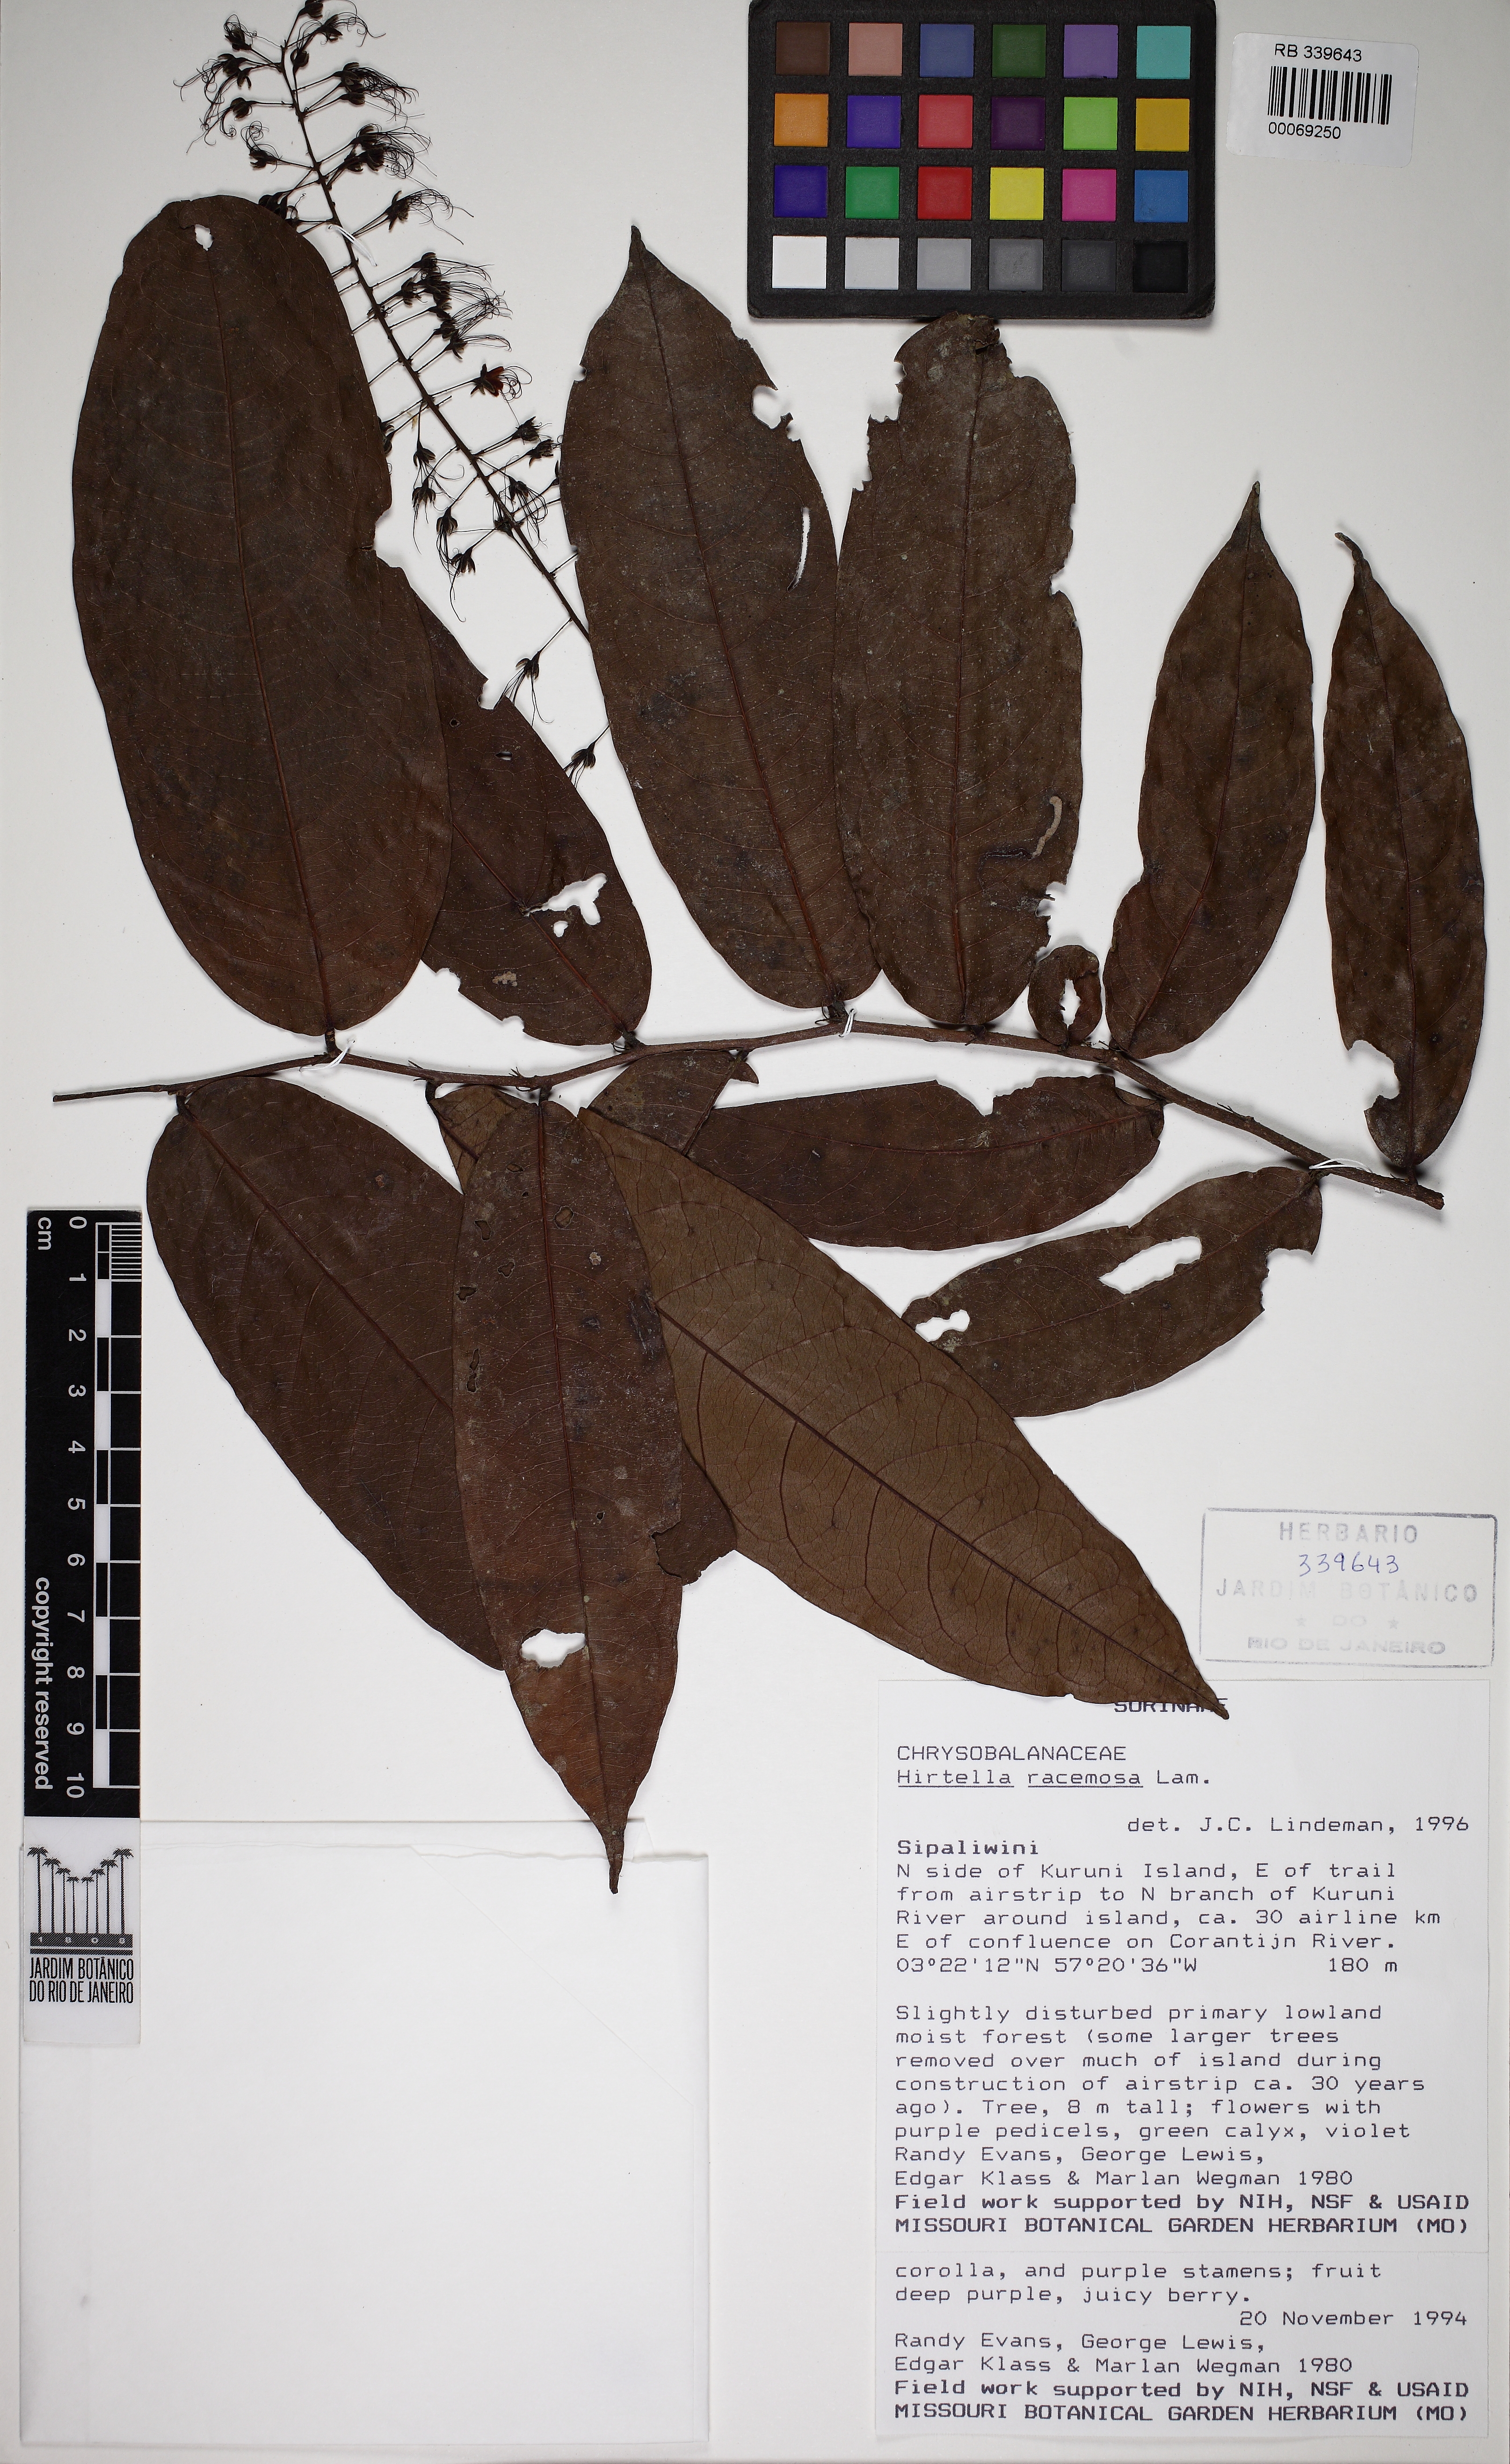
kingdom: Plantae
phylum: Tracheophyta
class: Magnoliopsida
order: Malpighiales
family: Chrysobalanaceae
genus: Hirtella
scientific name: Hirtella racemosa
